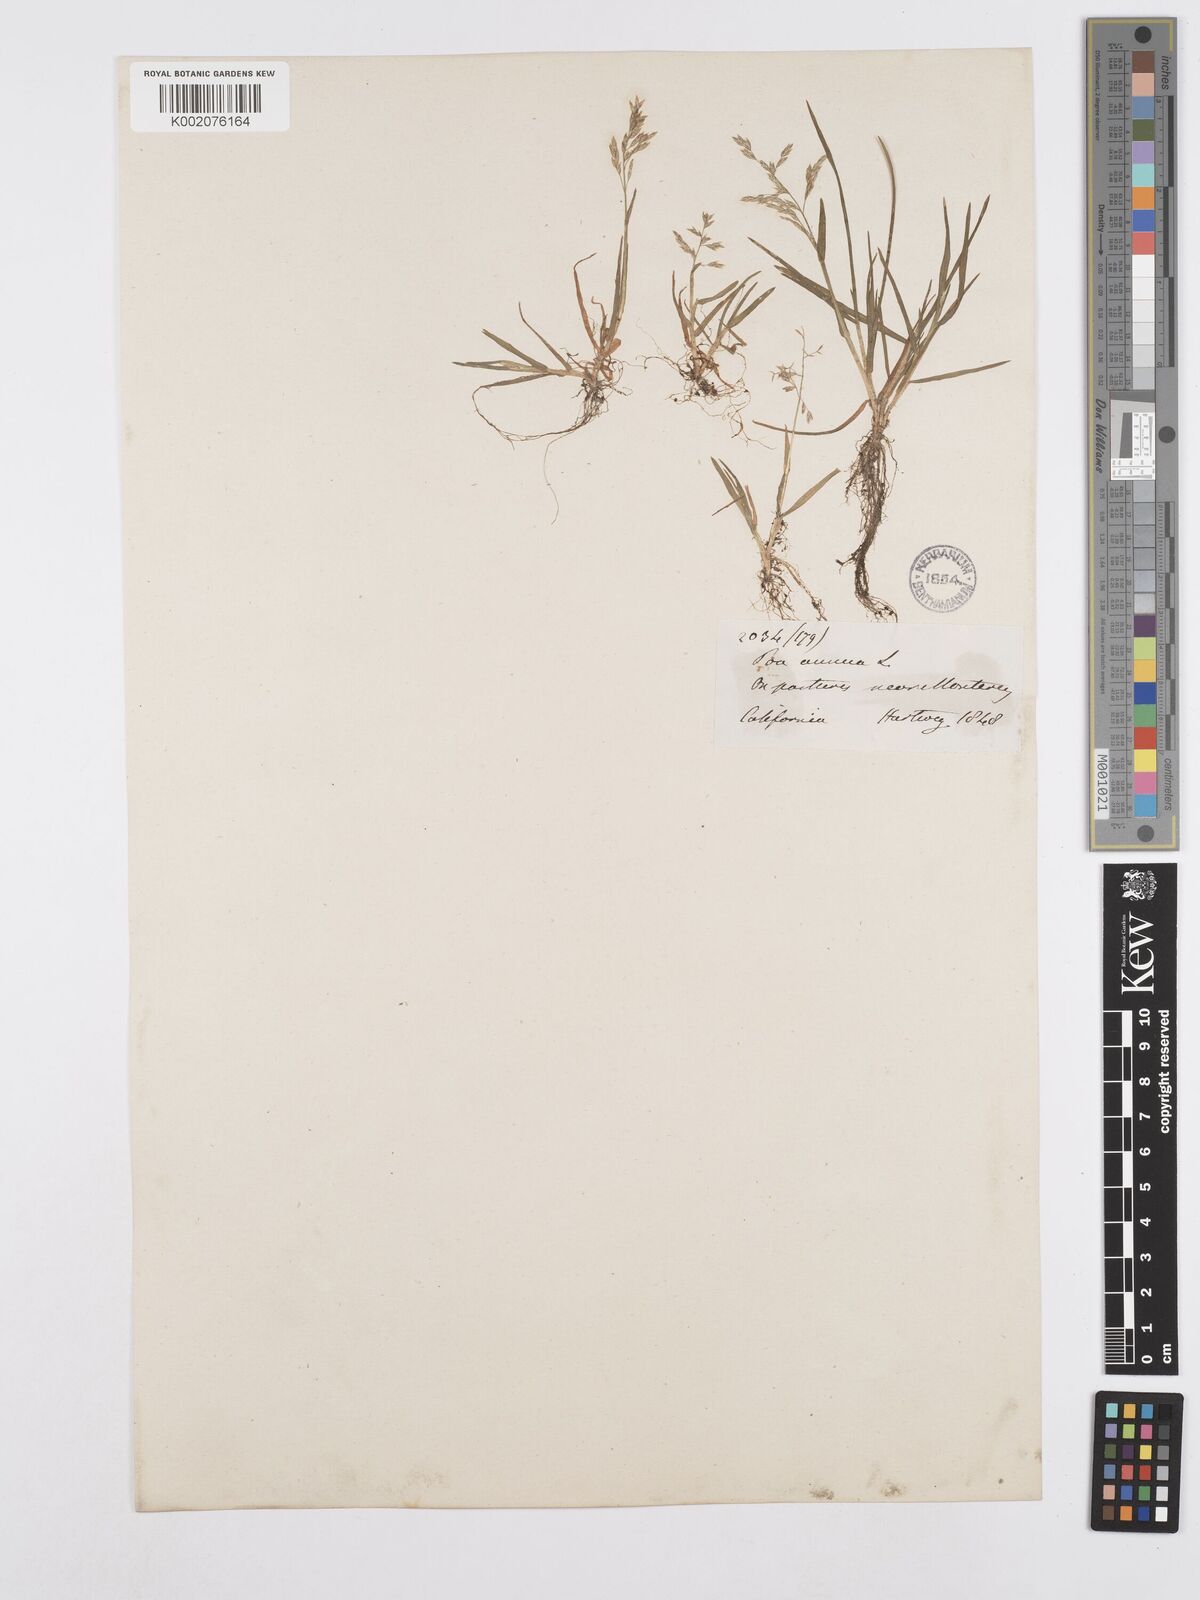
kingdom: Plantae
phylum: Tracheophyta
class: Liliopsida
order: Poales
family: Poaceae
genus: Poa
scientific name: Poa annua
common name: Annual bluegrass
